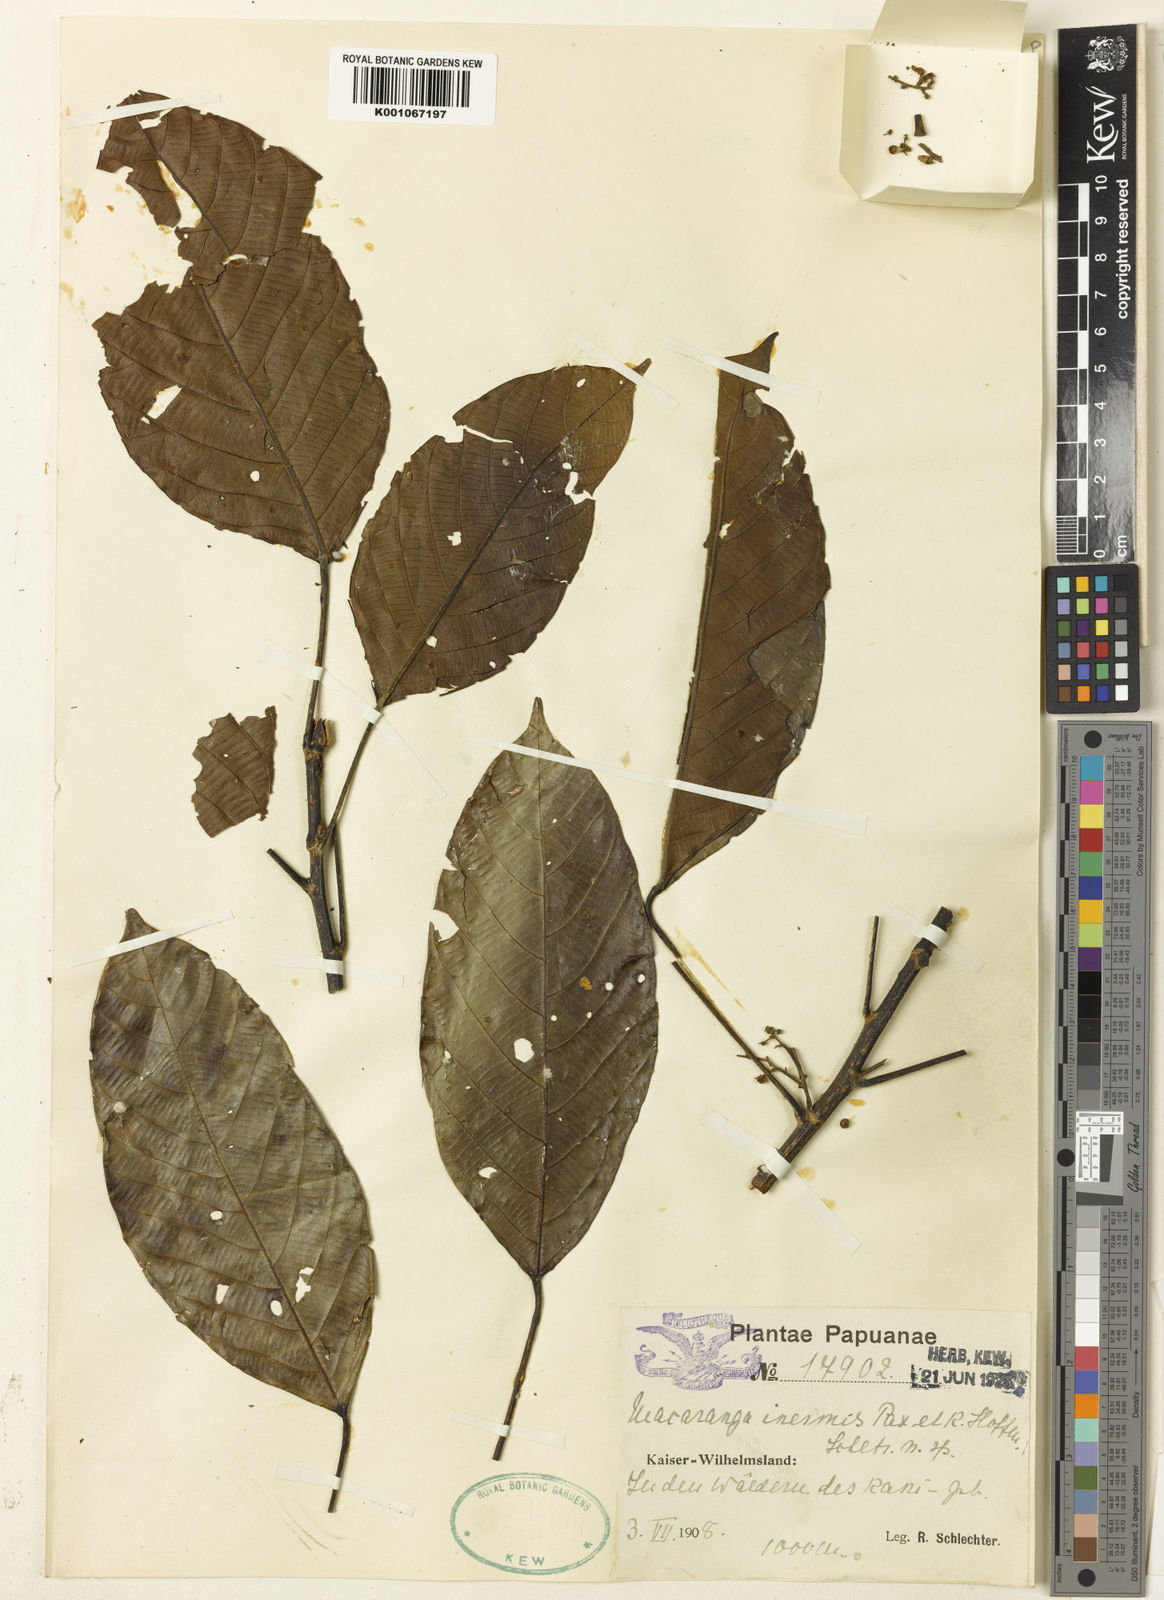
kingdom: Plantae
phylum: Tracheophyta
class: Magnoliopsida
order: Malpighiales
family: Euphorbiaceae
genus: Macaranga
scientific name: Macaranga inermis
